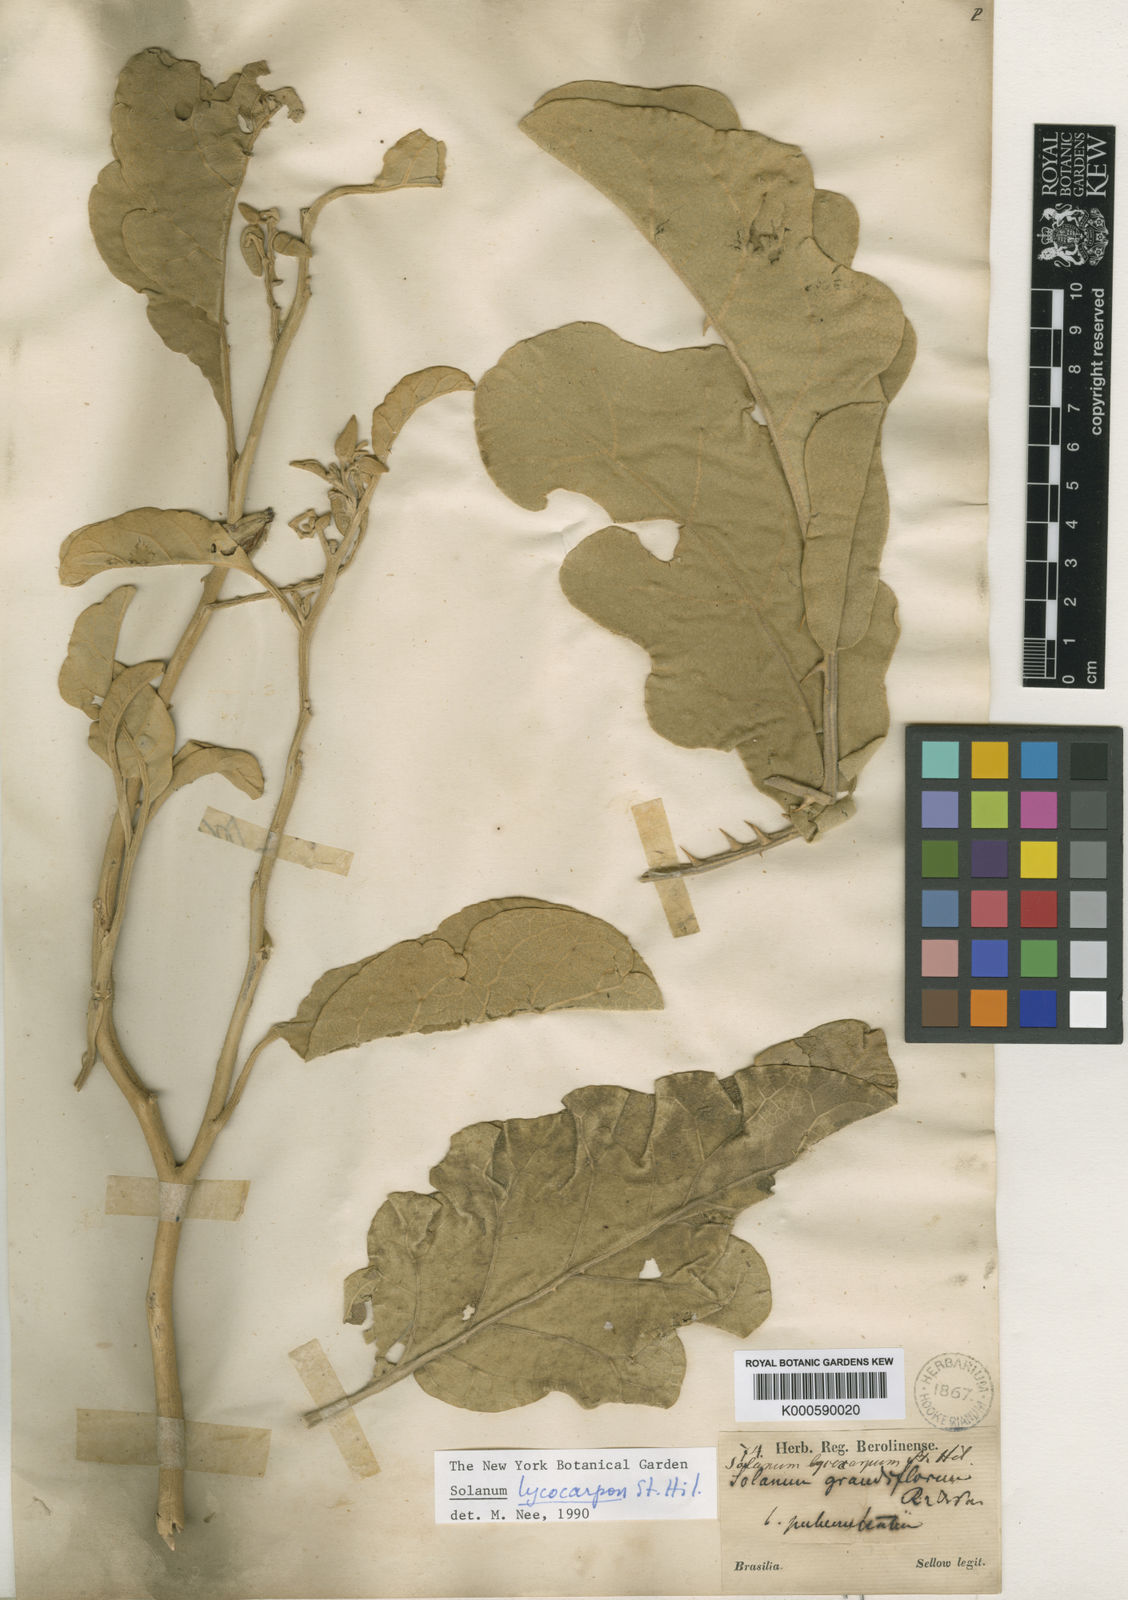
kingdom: Plantae
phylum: Tracheophyta
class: Magnoliopsida
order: Solanales
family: Solanaceae
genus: Solanum
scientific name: Solanum lycocarpum
